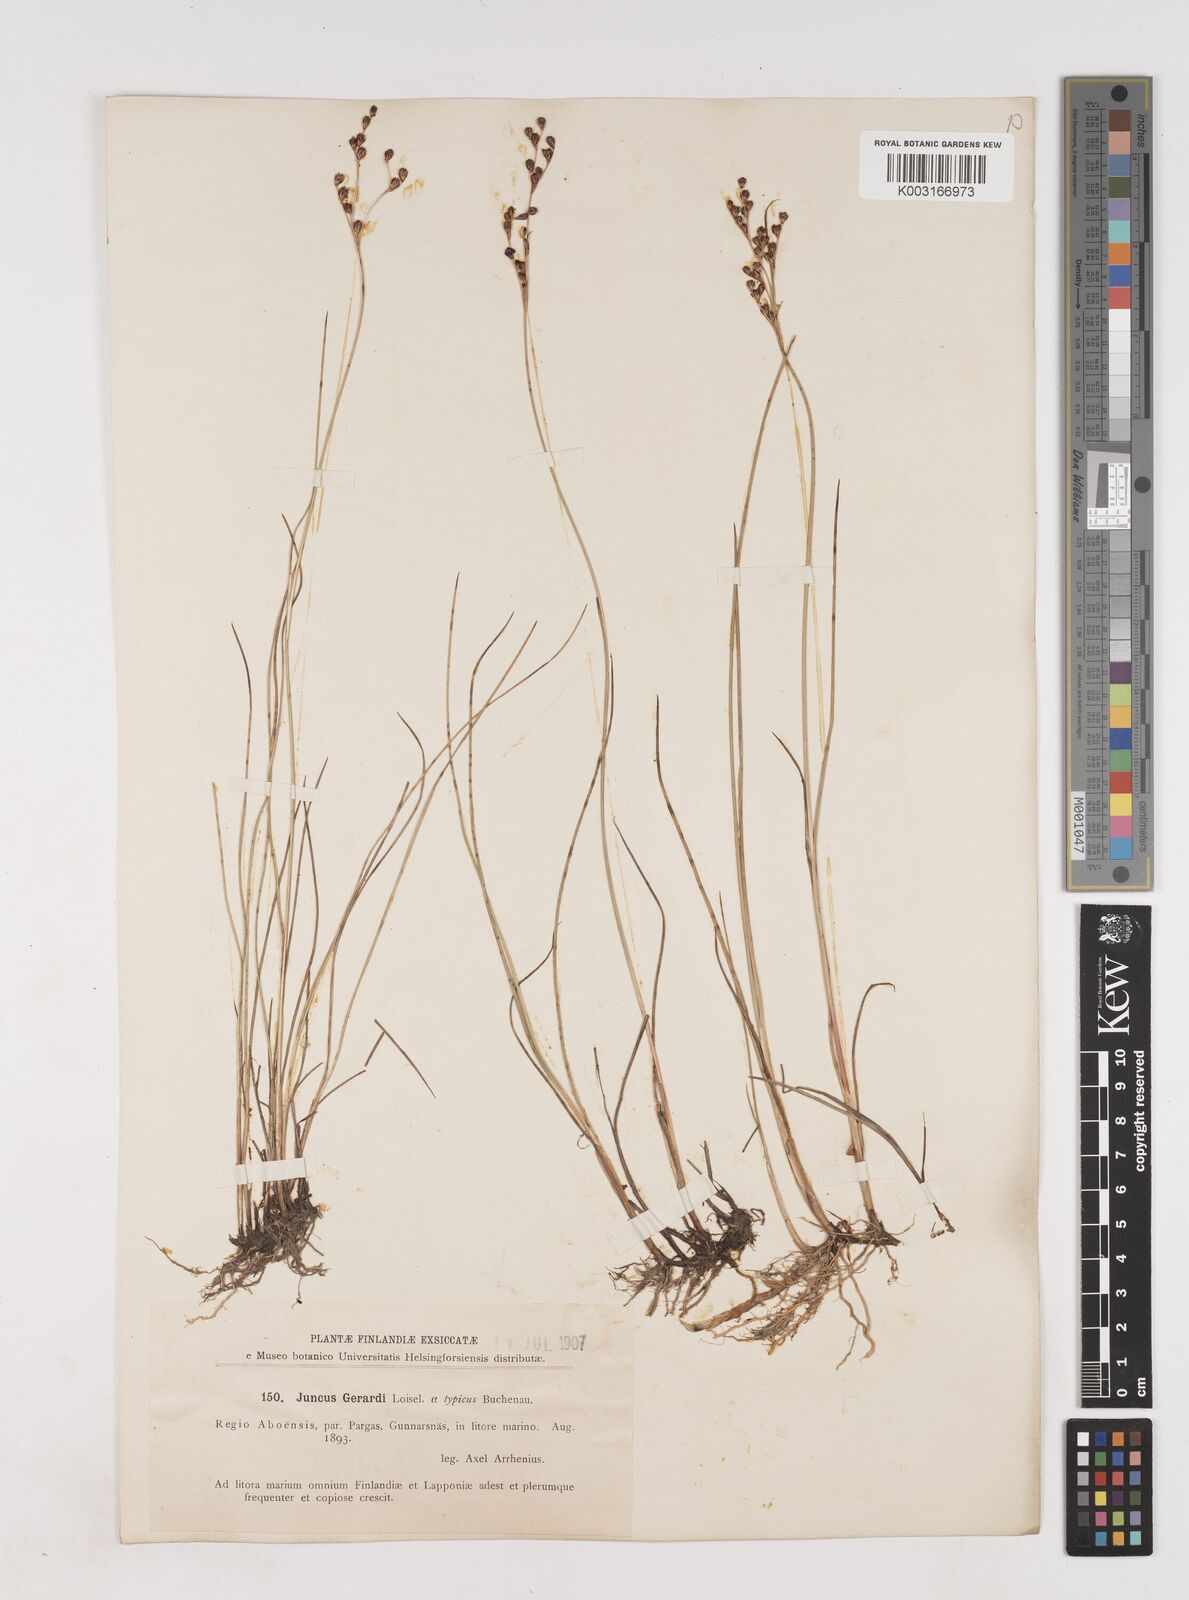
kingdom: Plantae
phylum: Tracheophyta
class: Liliopsida
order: Poales
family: Juncaceae
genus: Juncus
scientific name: Juncus gerardi
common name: Saltmarsh rush
